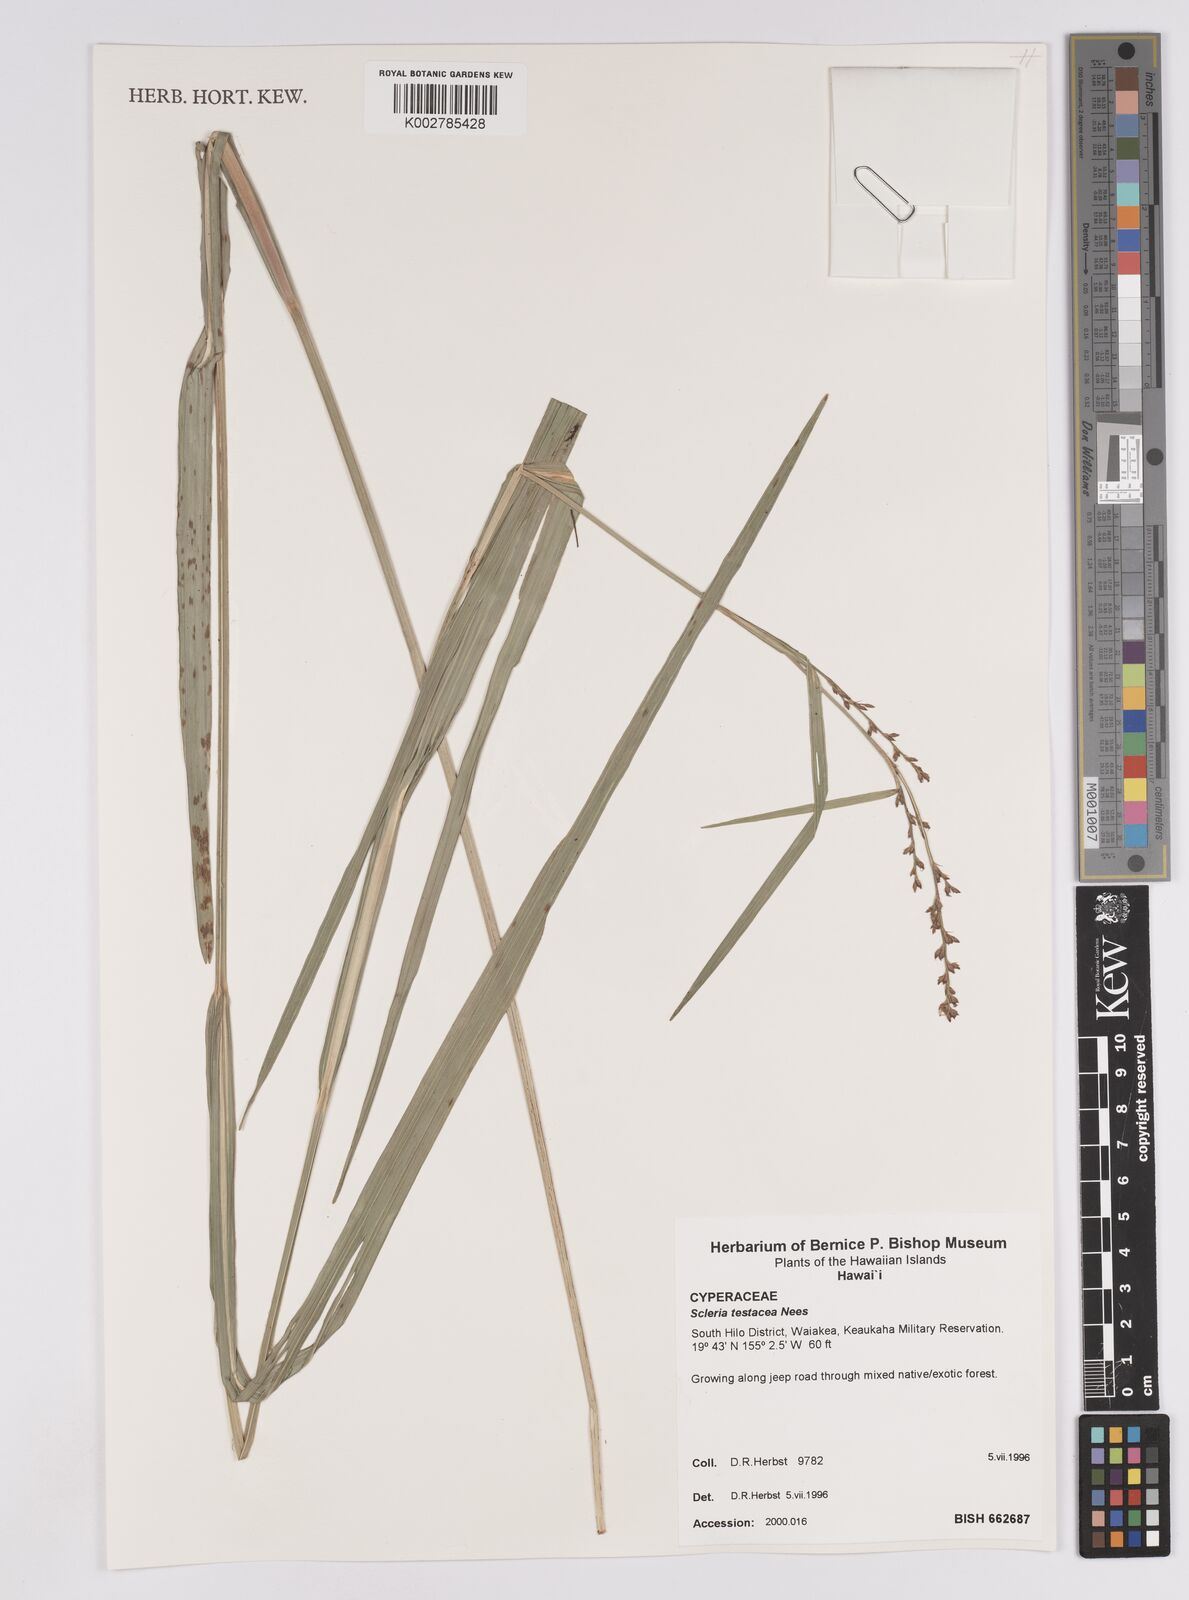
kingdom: Plantae
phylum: Tracheophyta
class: Liliopsida
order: Poales
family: Cyperaceae
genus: Scleria
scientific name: Scleria testacea
